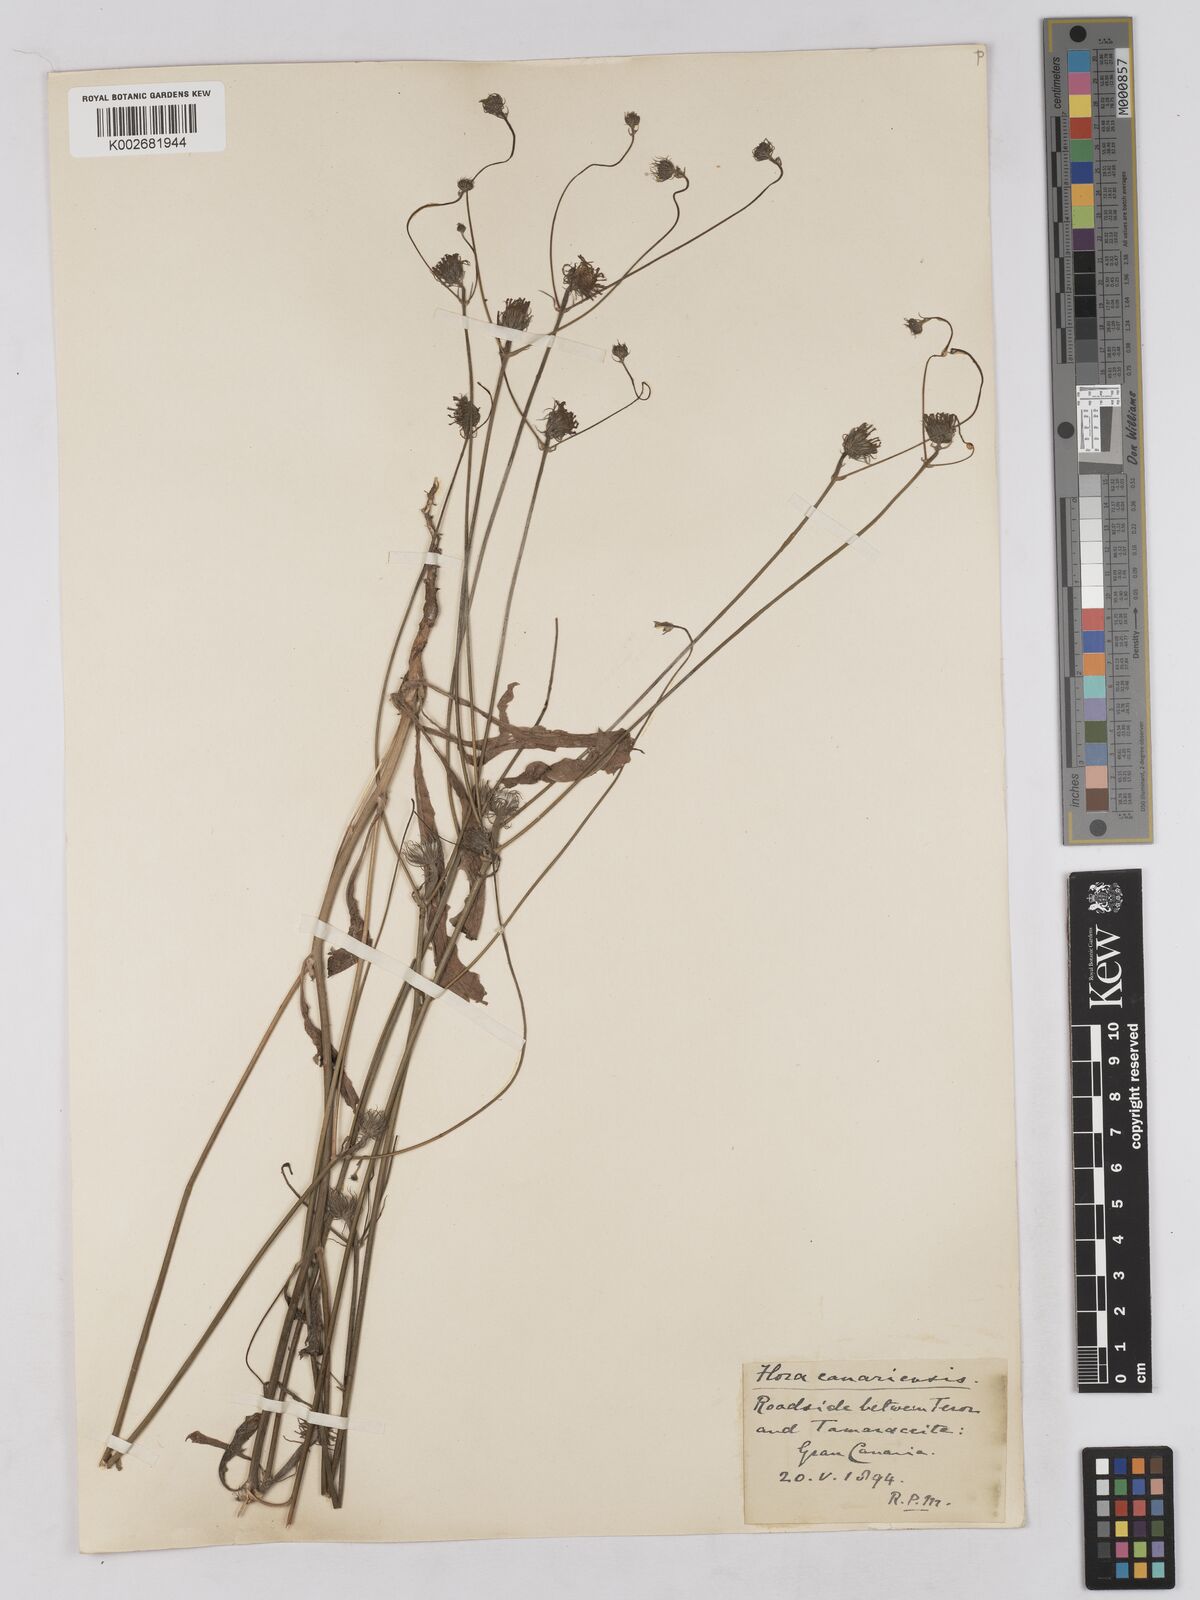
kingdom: Plantae
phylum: Tracheophyta
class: Magnoliopsida
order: Asterales
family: Asteraceae
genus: Tolpis
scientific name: Tolpis umbellata
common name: Yellow hawkweed
